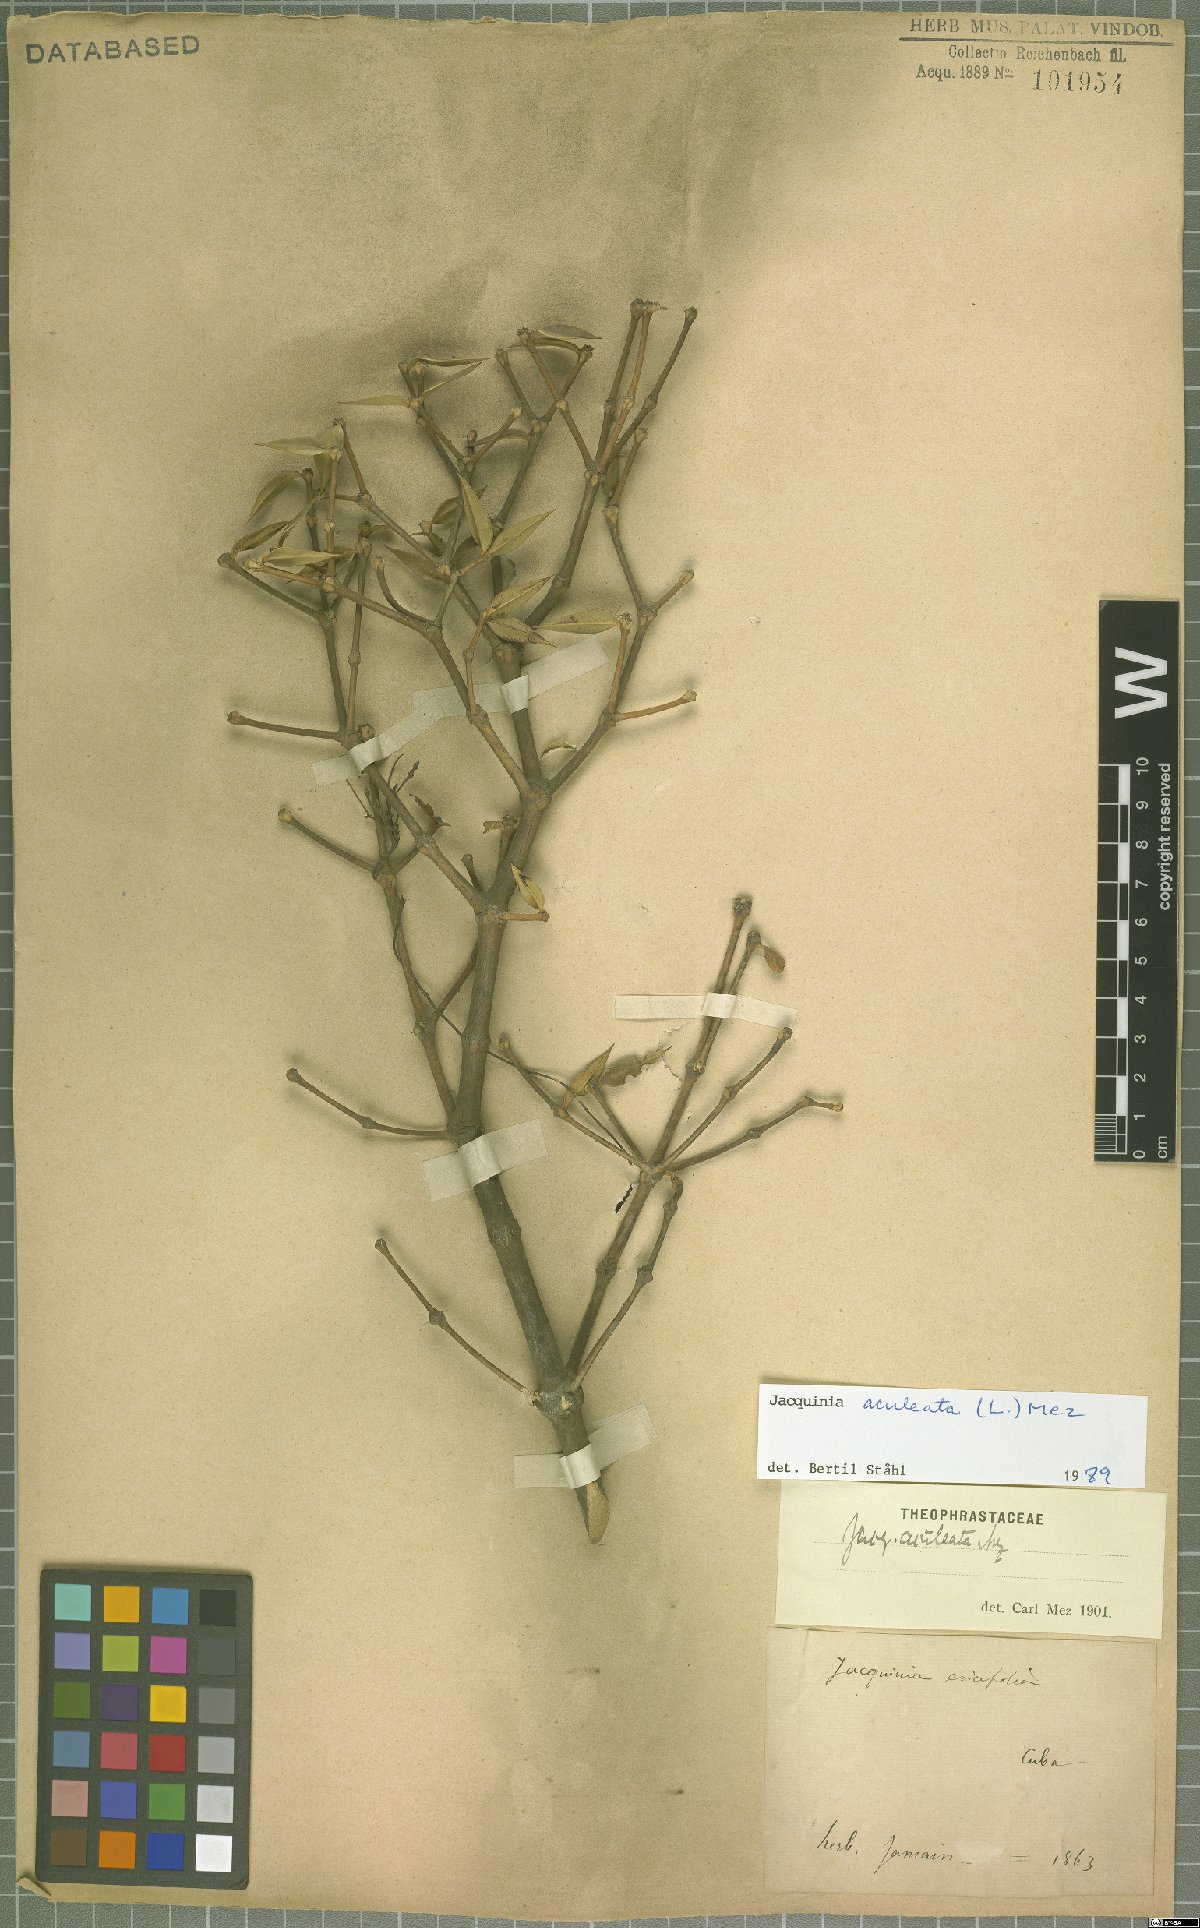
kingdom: Plantae
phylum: Tracheophyta
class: Magnoliopsida
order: Ericales
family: Primulaceae
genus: Jacquinia
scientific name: Jacquinia aculeata
